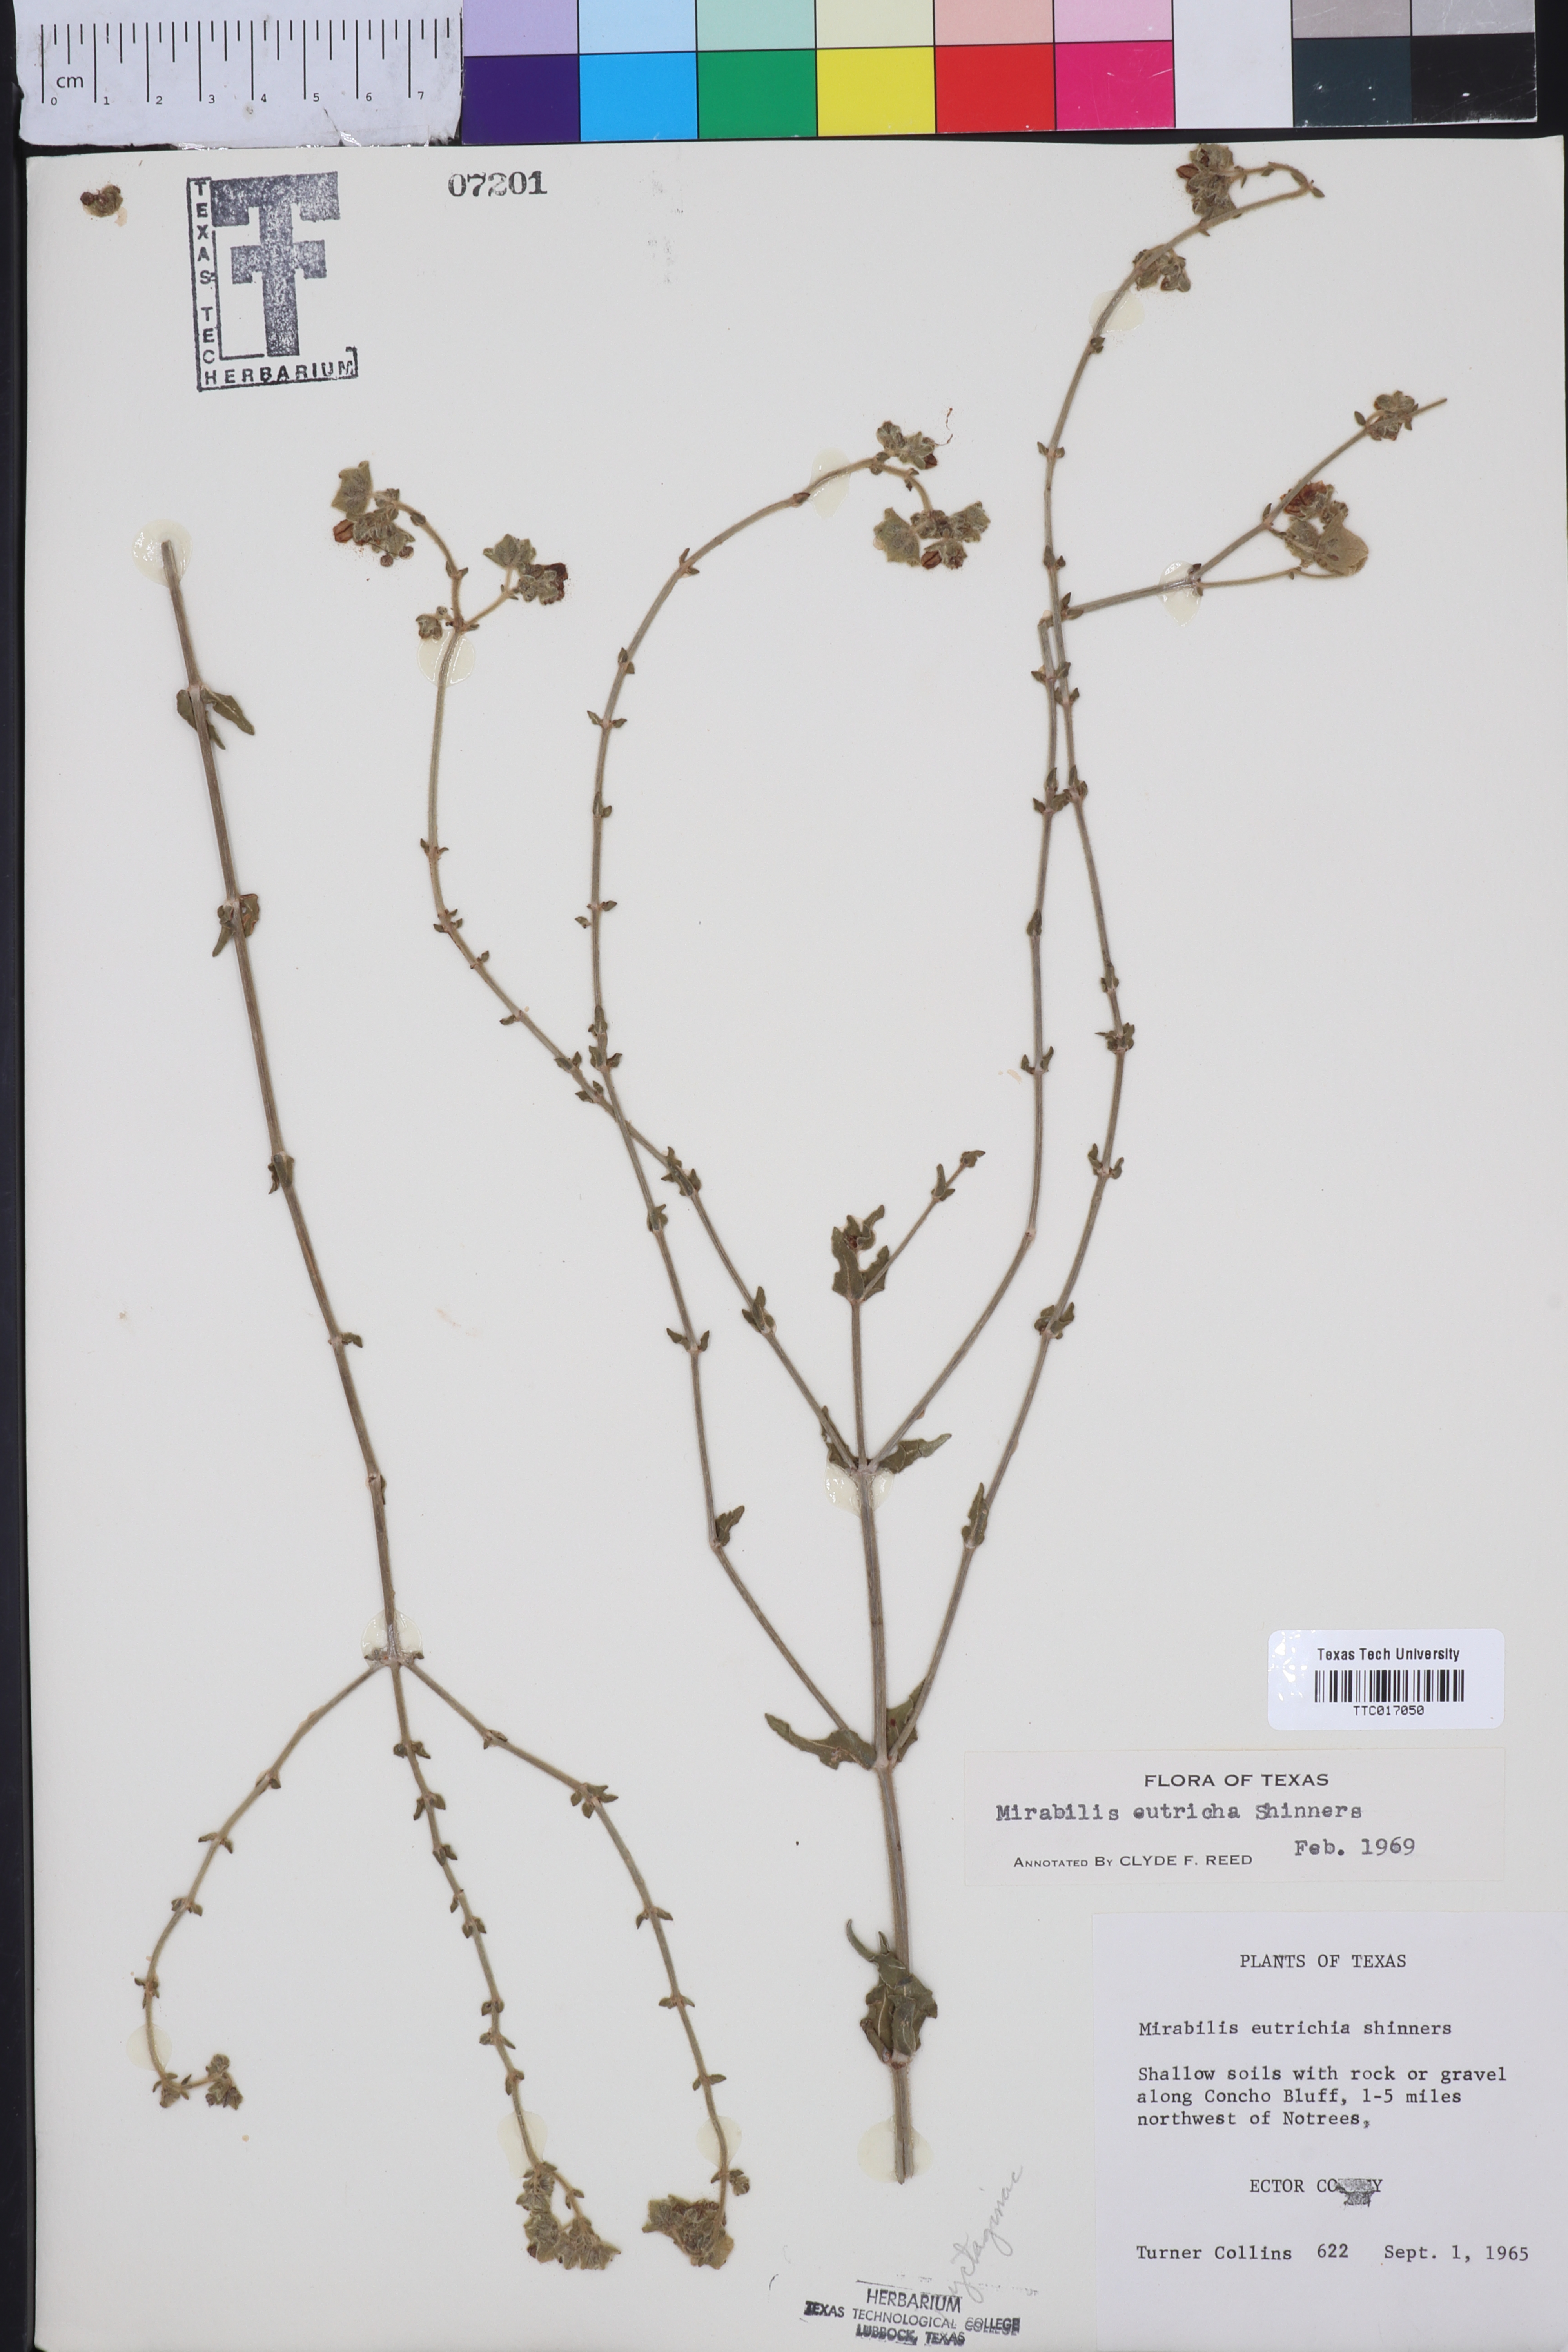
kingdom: Plantae
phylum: Tracheophyta
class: Magnoliopsida
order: Caryophyllales
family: Nyctaginaceae
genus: Mirabilis
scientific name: Mirabilis albida
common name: Hairy four-o'clock
